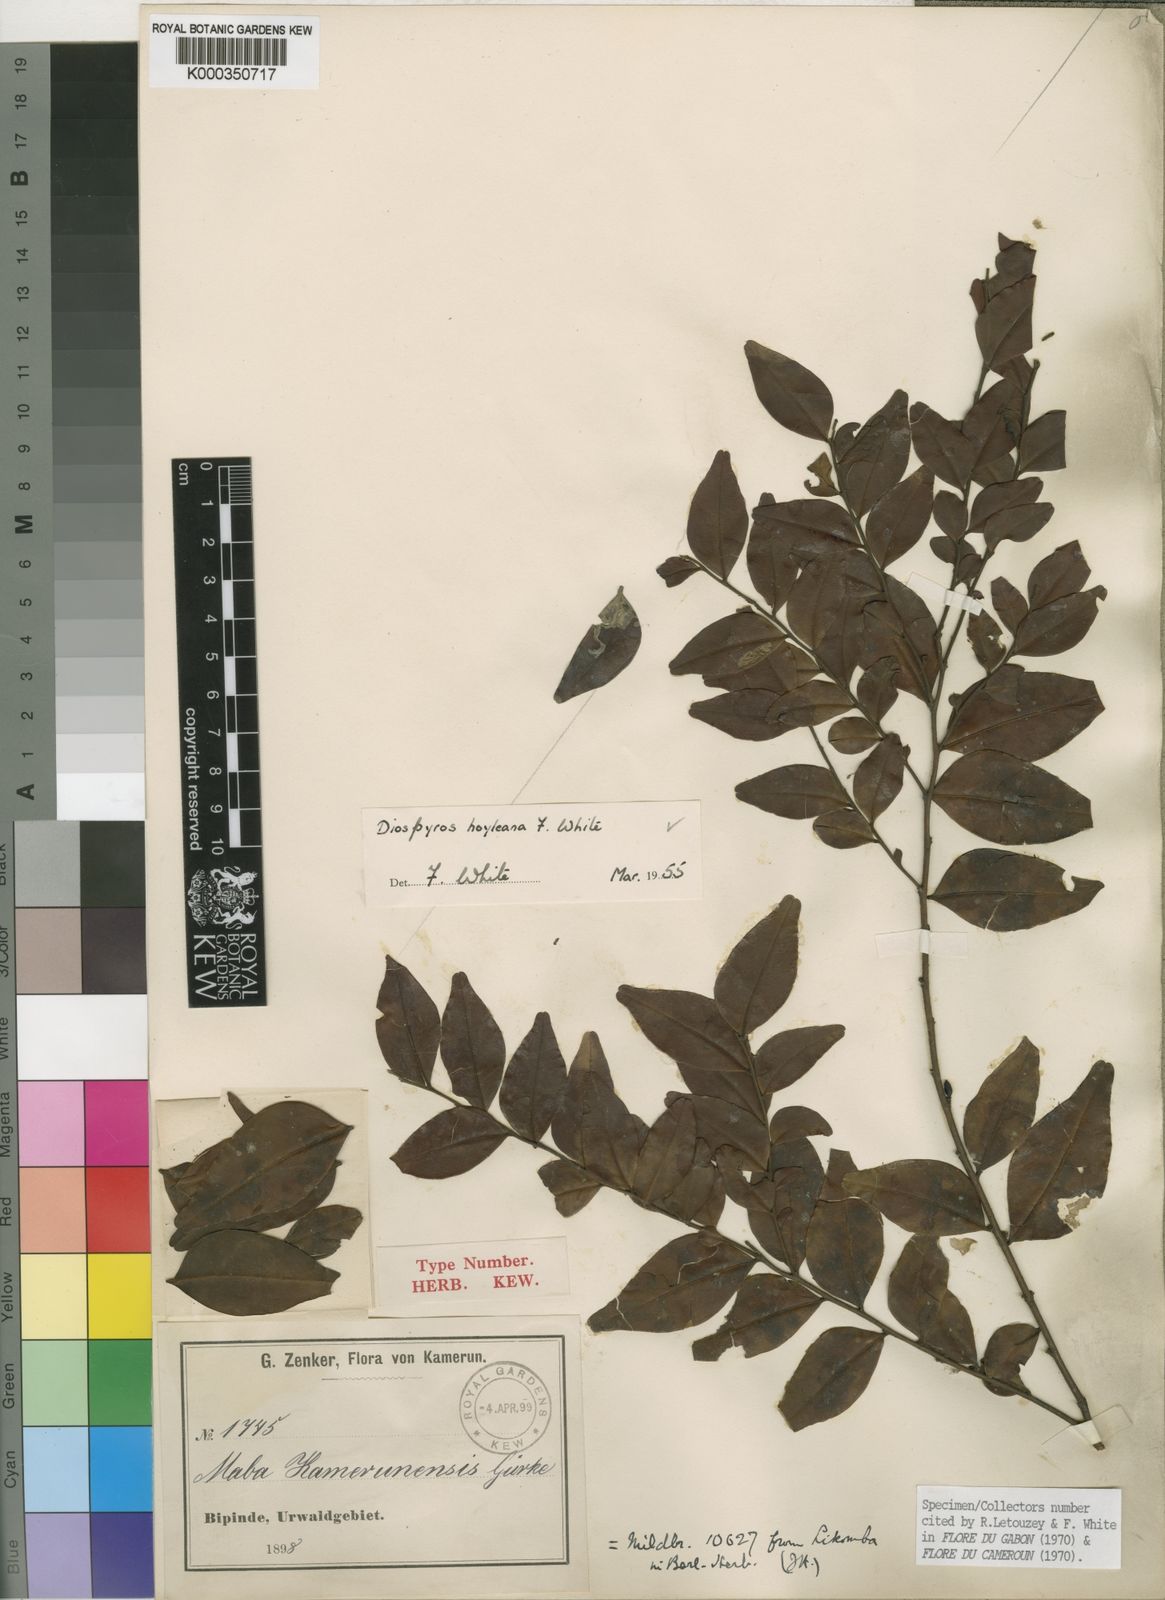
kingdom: Plantae
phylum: Tracheophyta
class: Magnoliopsida
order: Ericales
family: Ebenaceae
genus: Diospyros
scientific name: Diospyros hoyleana
